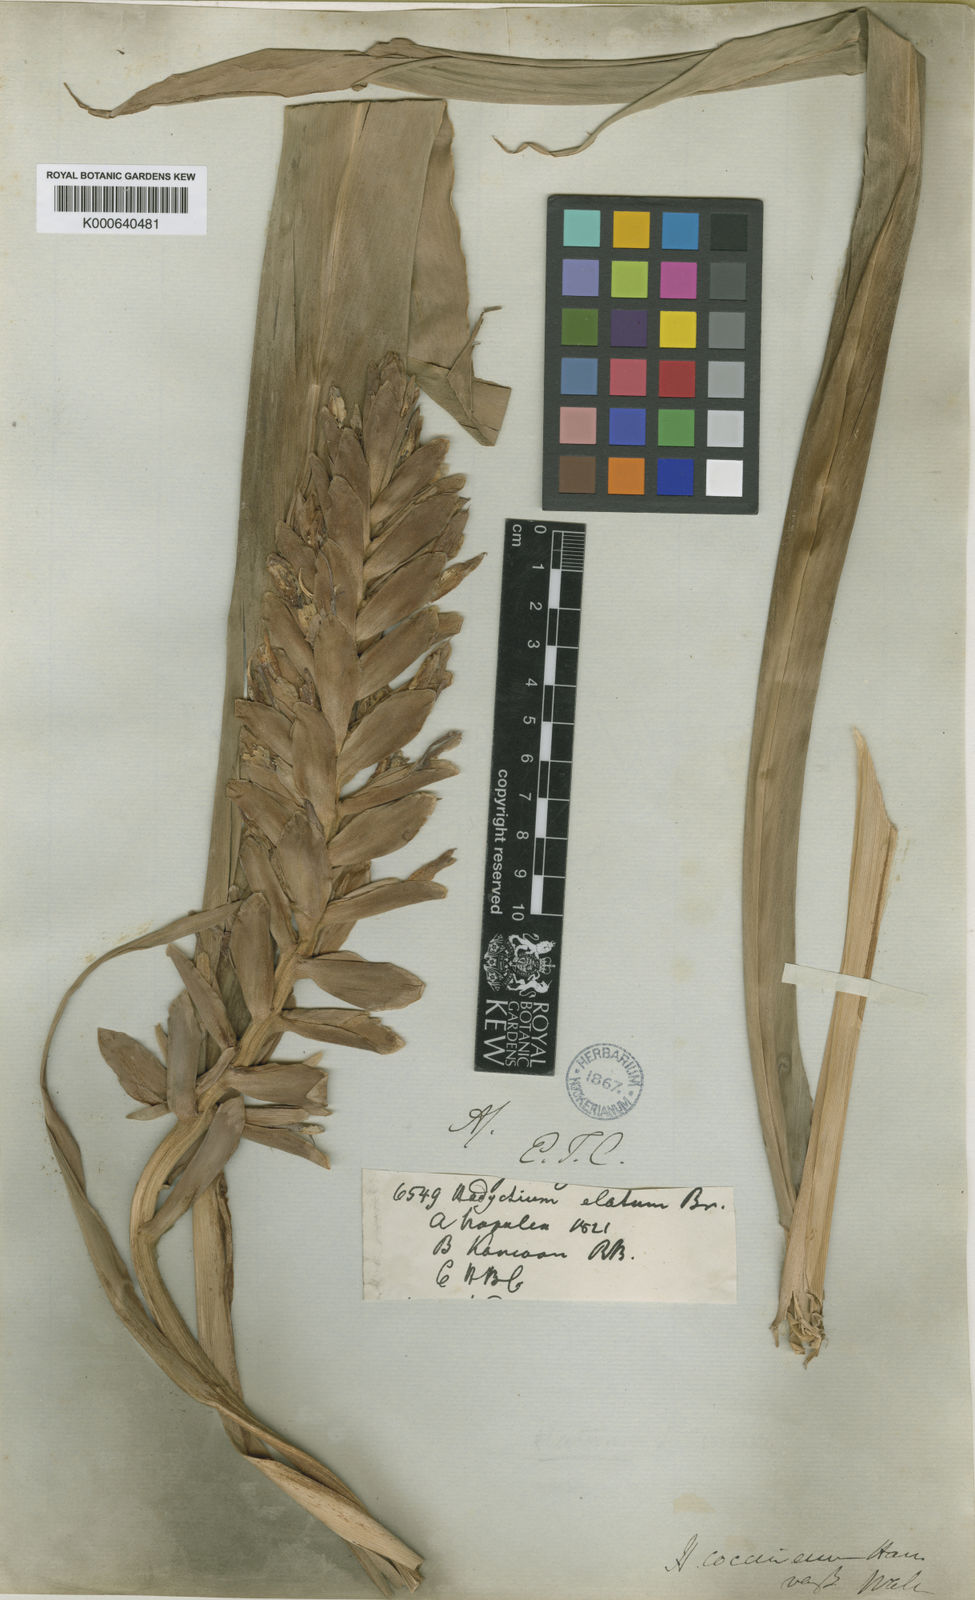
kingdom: Plantae
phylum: Tracheophyta
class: Liliopsida
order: Zingiberales
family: Zingiberaceae
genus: Hedychium
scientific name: Hedychium coccineum
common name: Red ginger-lily
